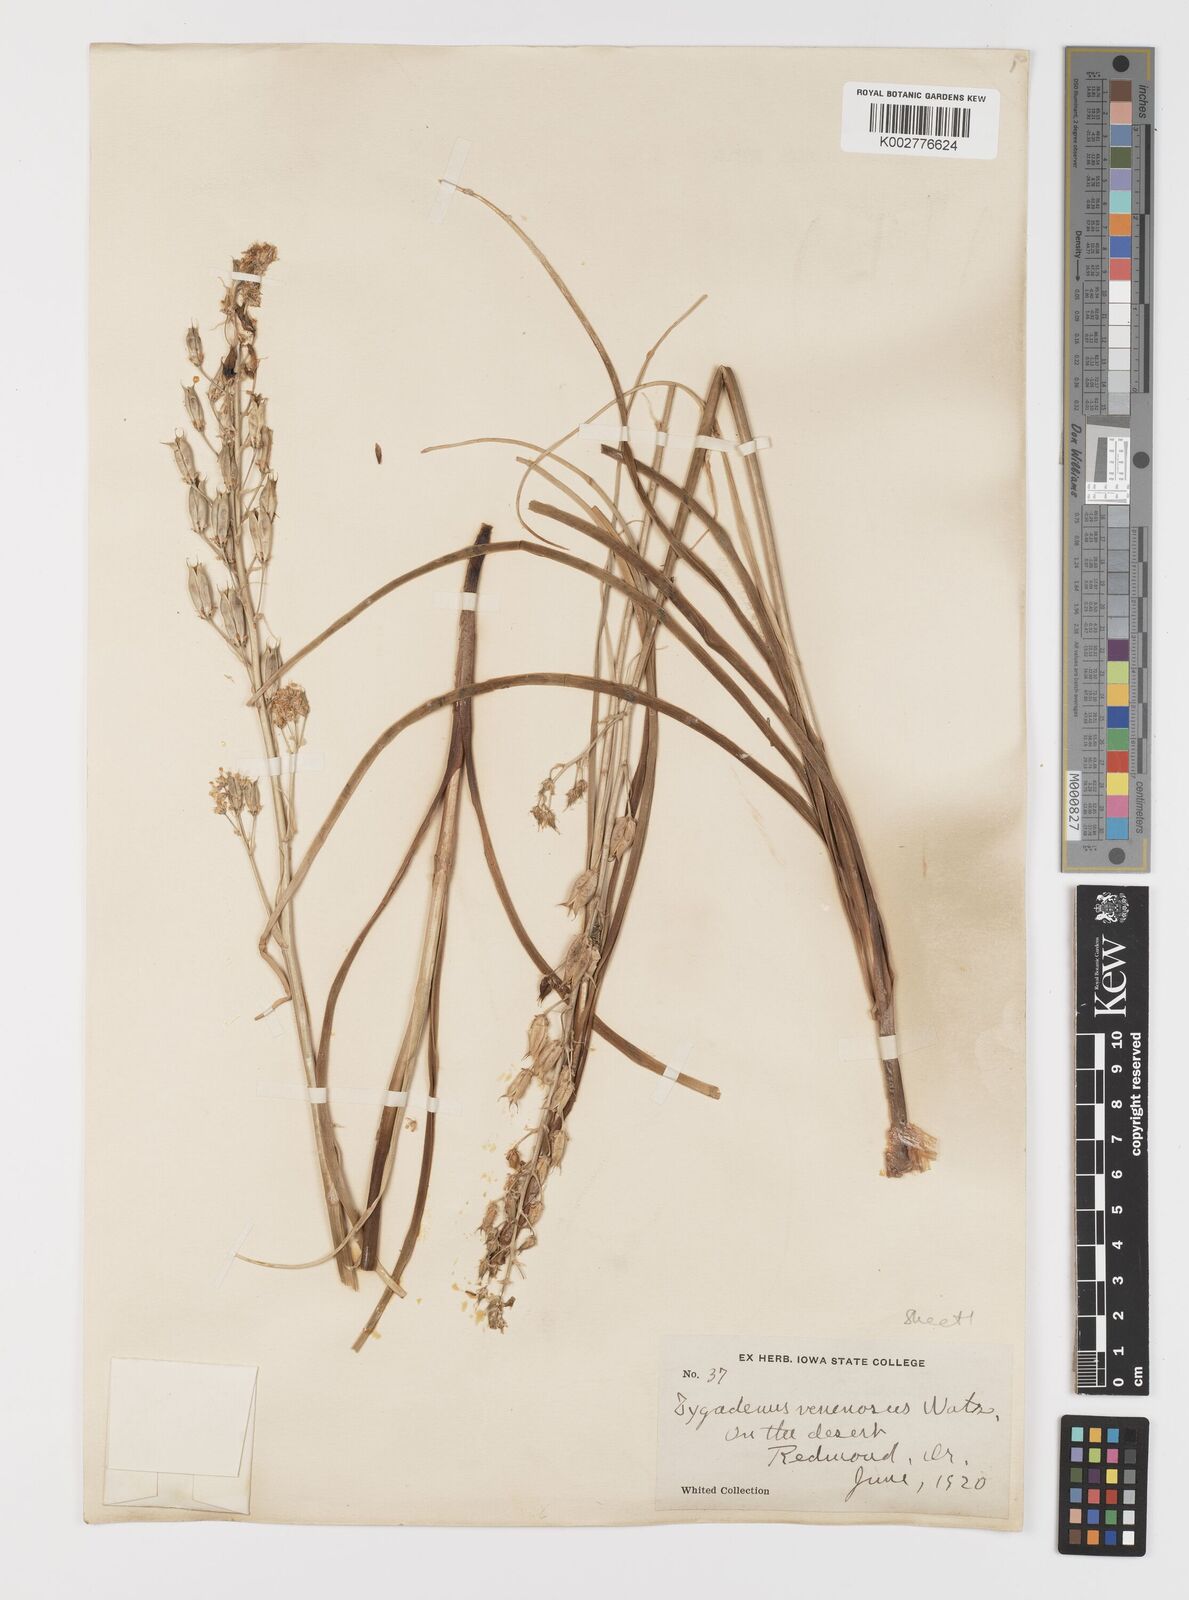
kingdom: Plantae
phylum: Tracheophyta
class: Liliopsida
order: Liliales
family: Melanthiaceae
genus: Toxicoscordion
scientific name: Toxicoscordion venenosum
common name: Meadow death camas
